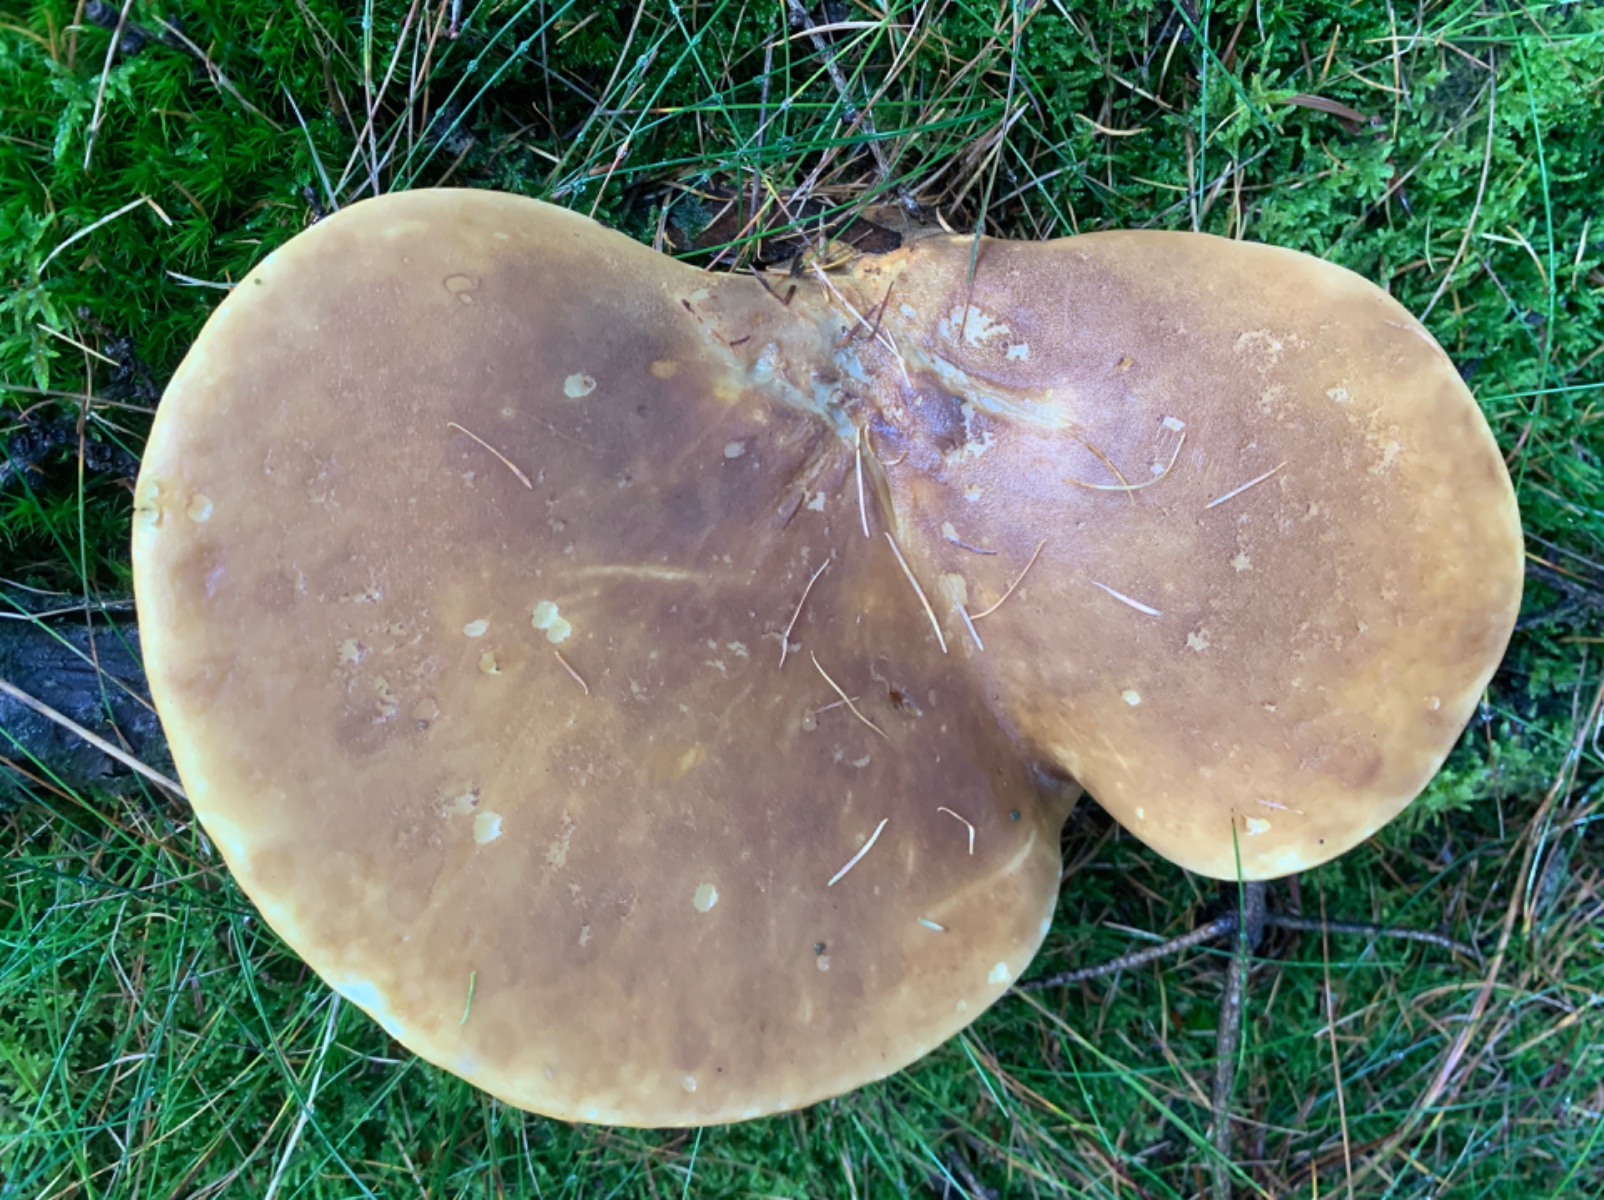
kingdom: Fungi
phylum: Basidiomycota
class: Agaricomycetes
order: Boletales
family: Tapinellaceae
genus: Tapinella
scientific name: Tapinella atrotomentosa
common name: sortfiltet viftesvamp
